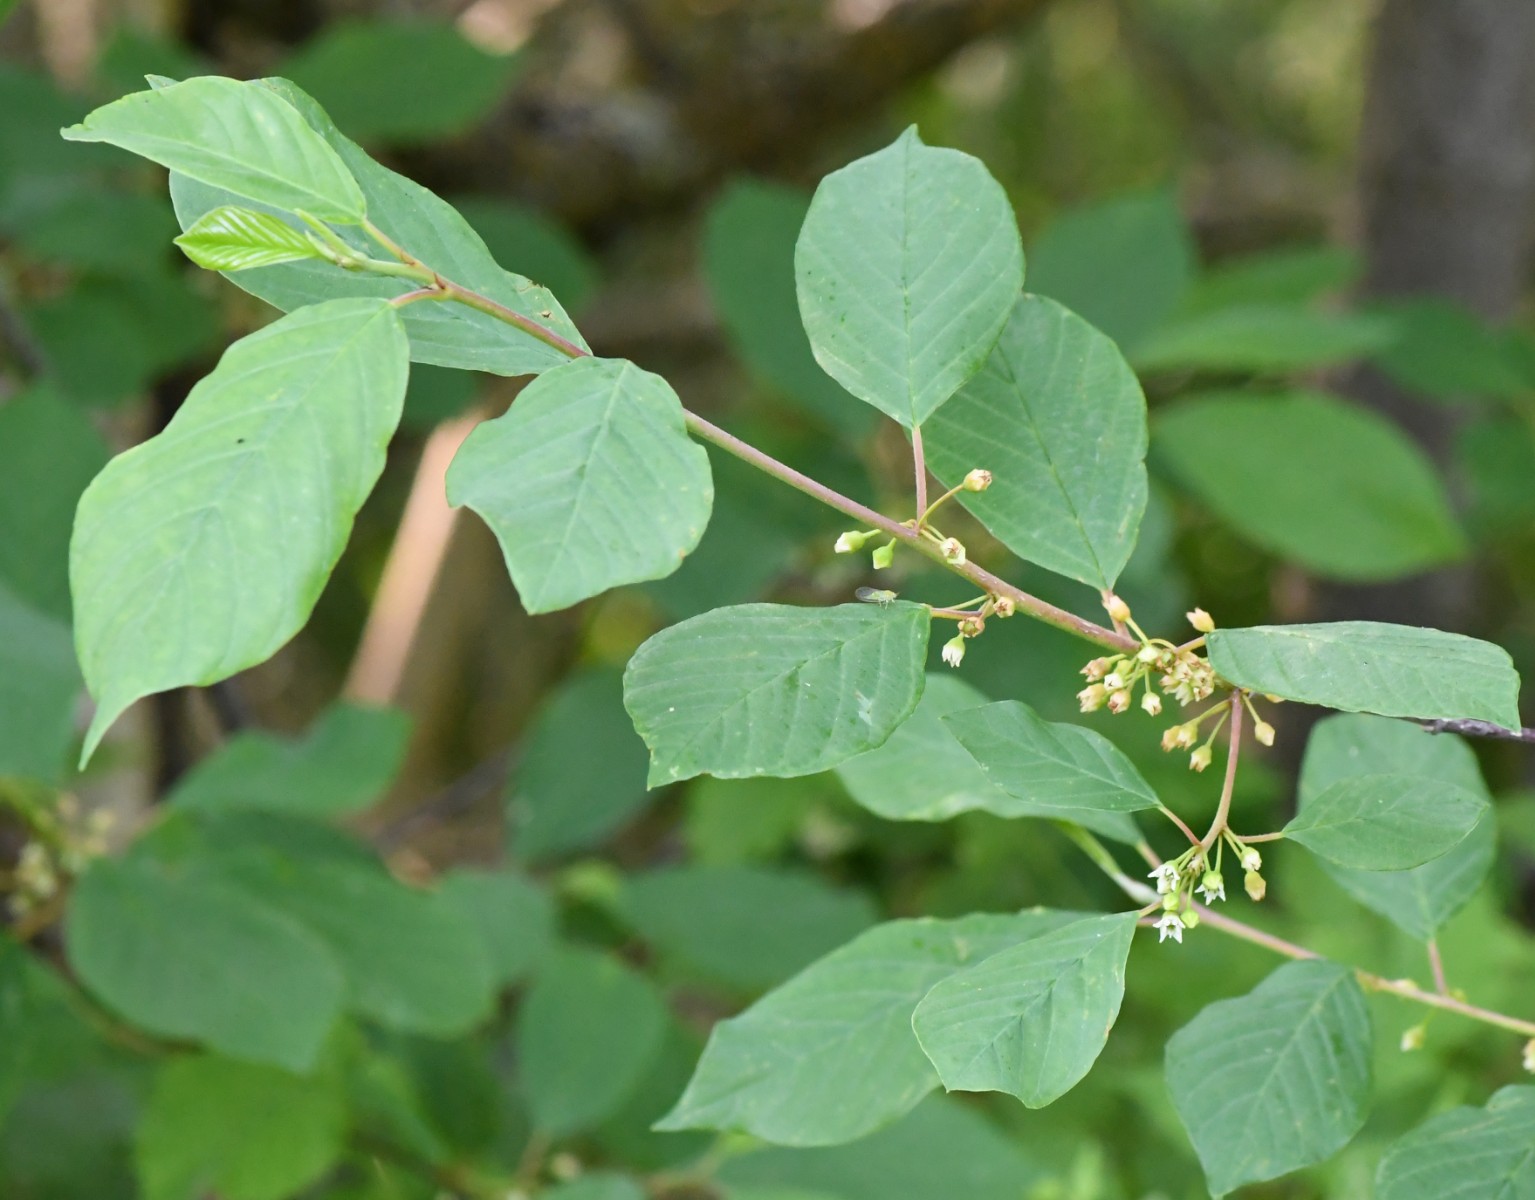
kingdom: Fungi
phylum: Basidiomycota
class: Pucciniomycetes
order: Pucciniales
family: Pucciniaceae
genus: Puccinia
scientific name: Puccinia coronata
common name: Crown rust
